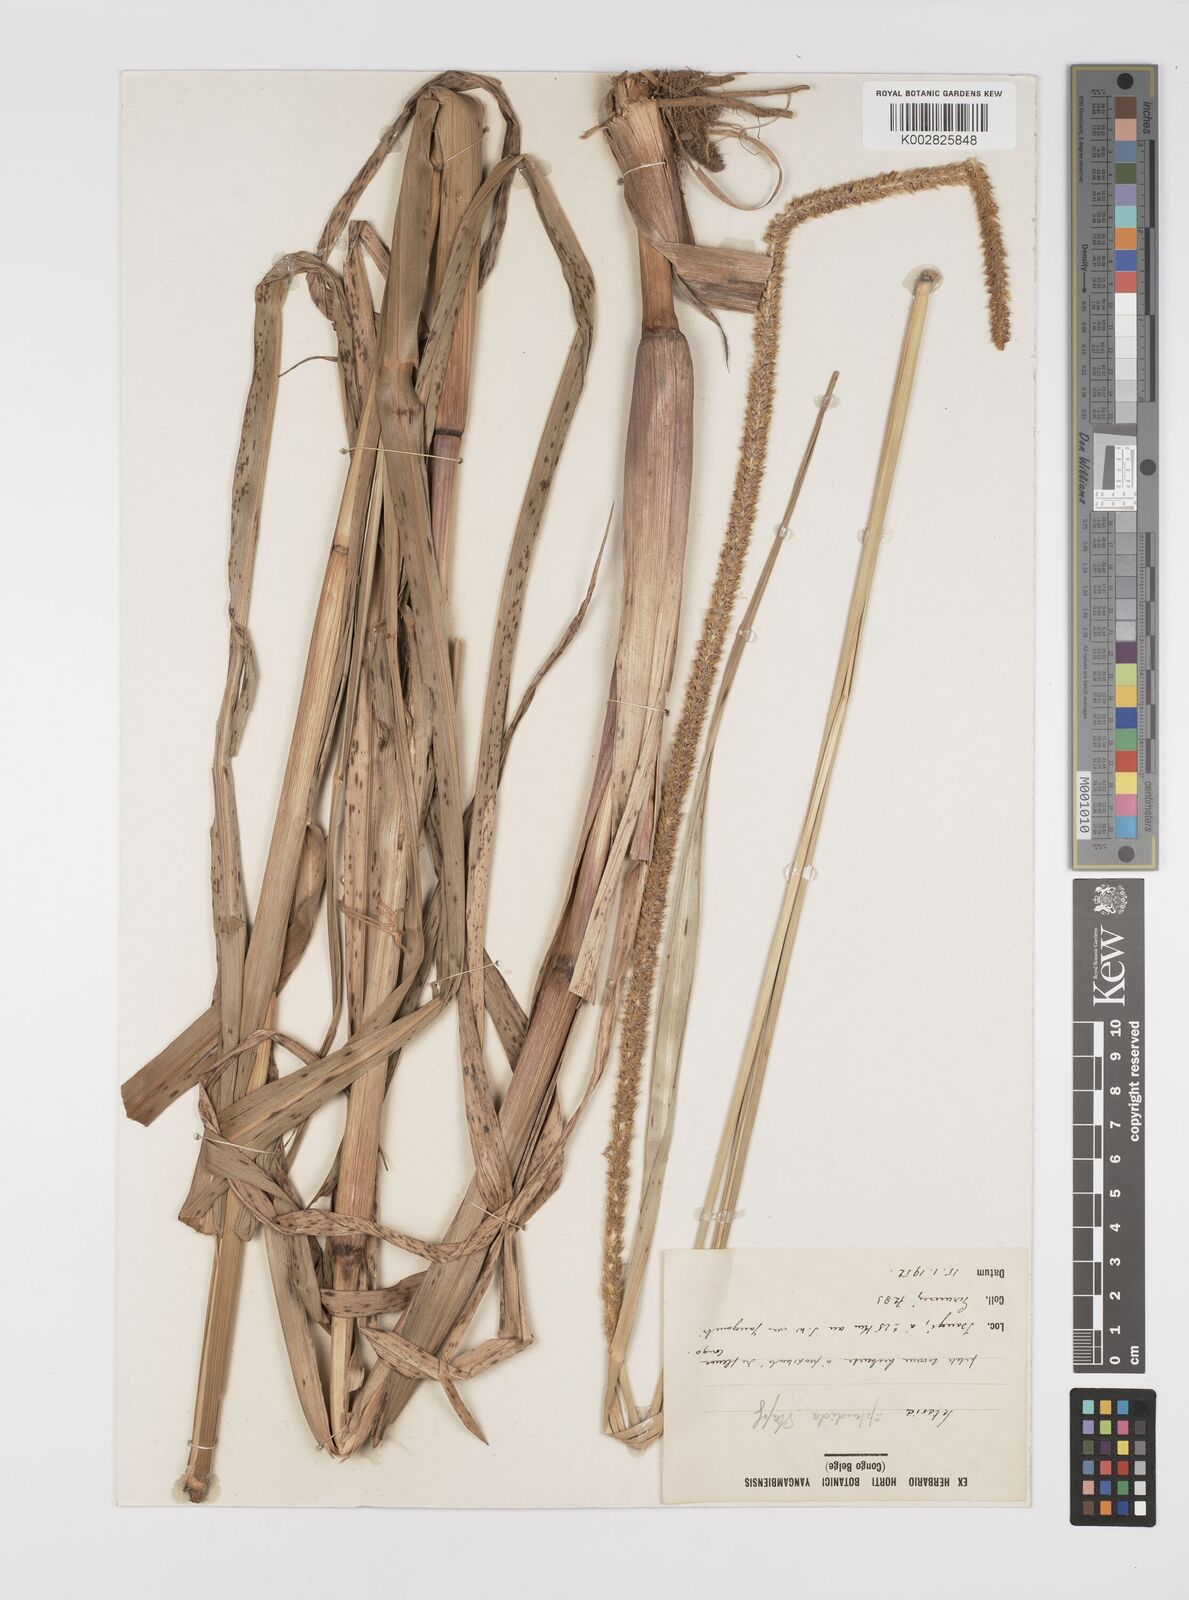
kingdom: Plantae
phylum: Tracheophyta
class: Liliopsida
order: Poales
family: Poaceae
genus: Setaria
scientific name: Setaria sphacelata
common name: African bristlegrass
